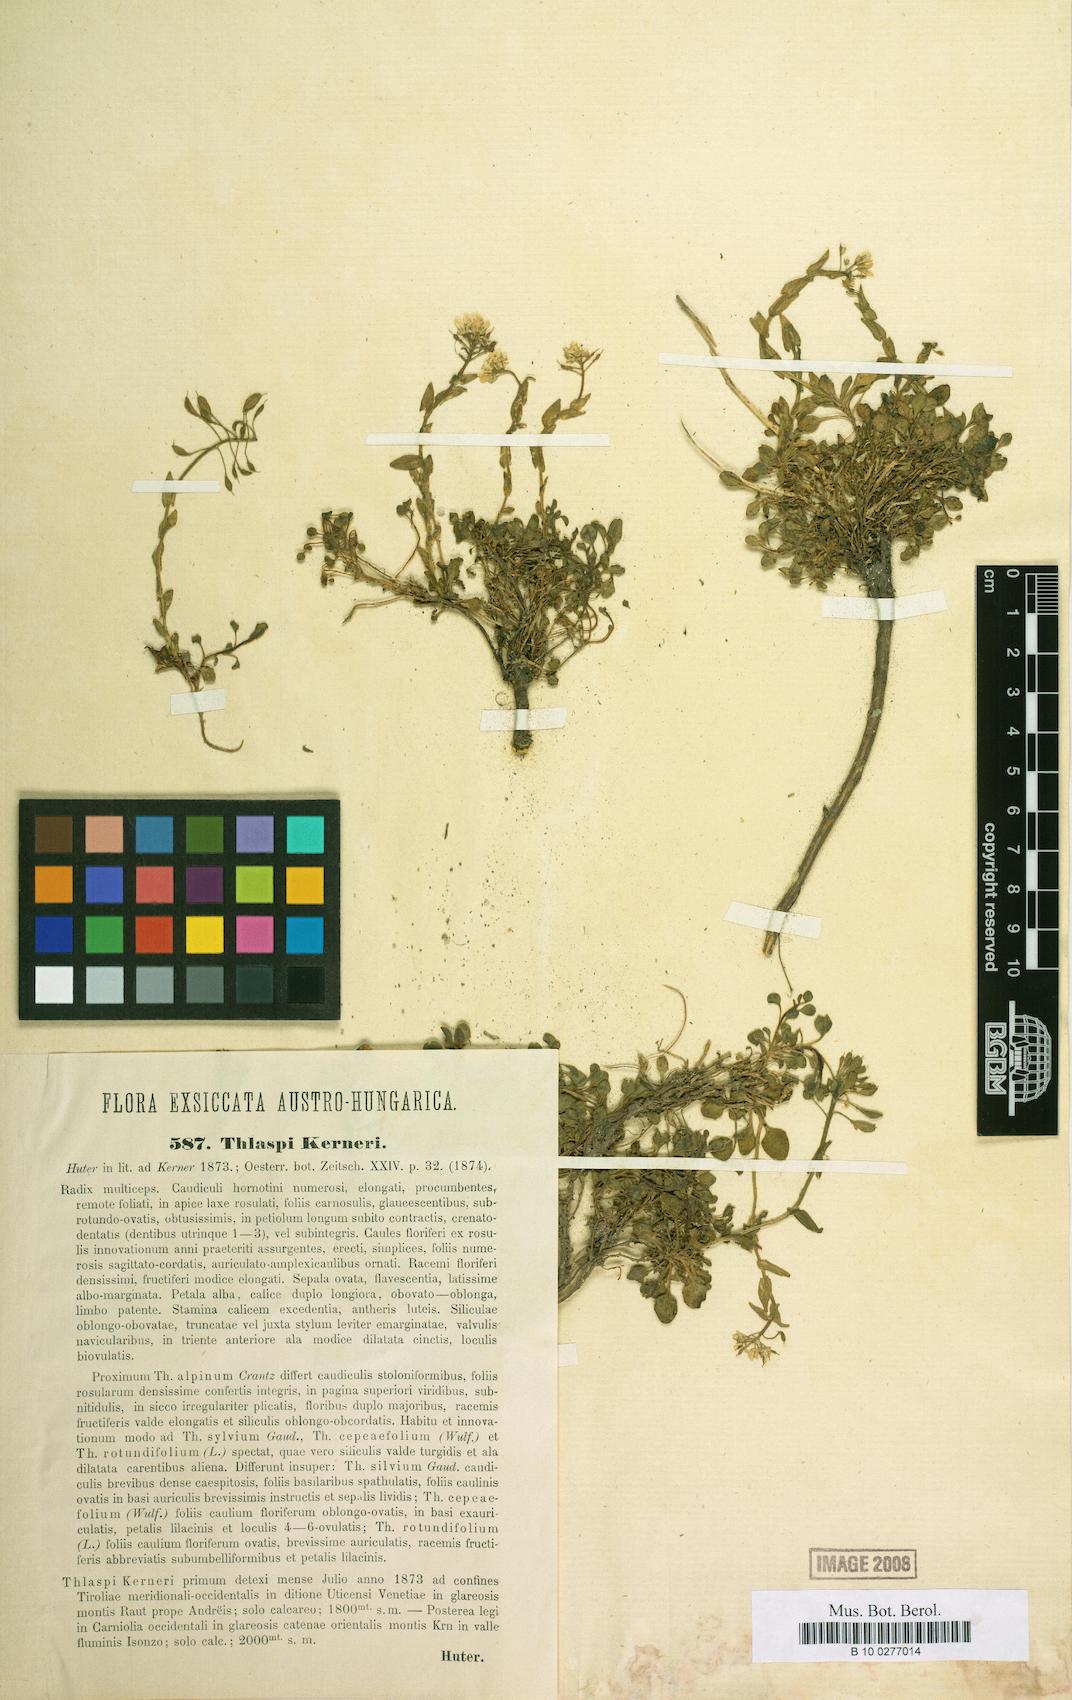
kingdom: Plantae
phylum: Tracheophyta
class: Magnoliopsida
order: Brassicales
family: Brassicaceae
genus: Noccaea
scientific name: Noccaea brachypetala
